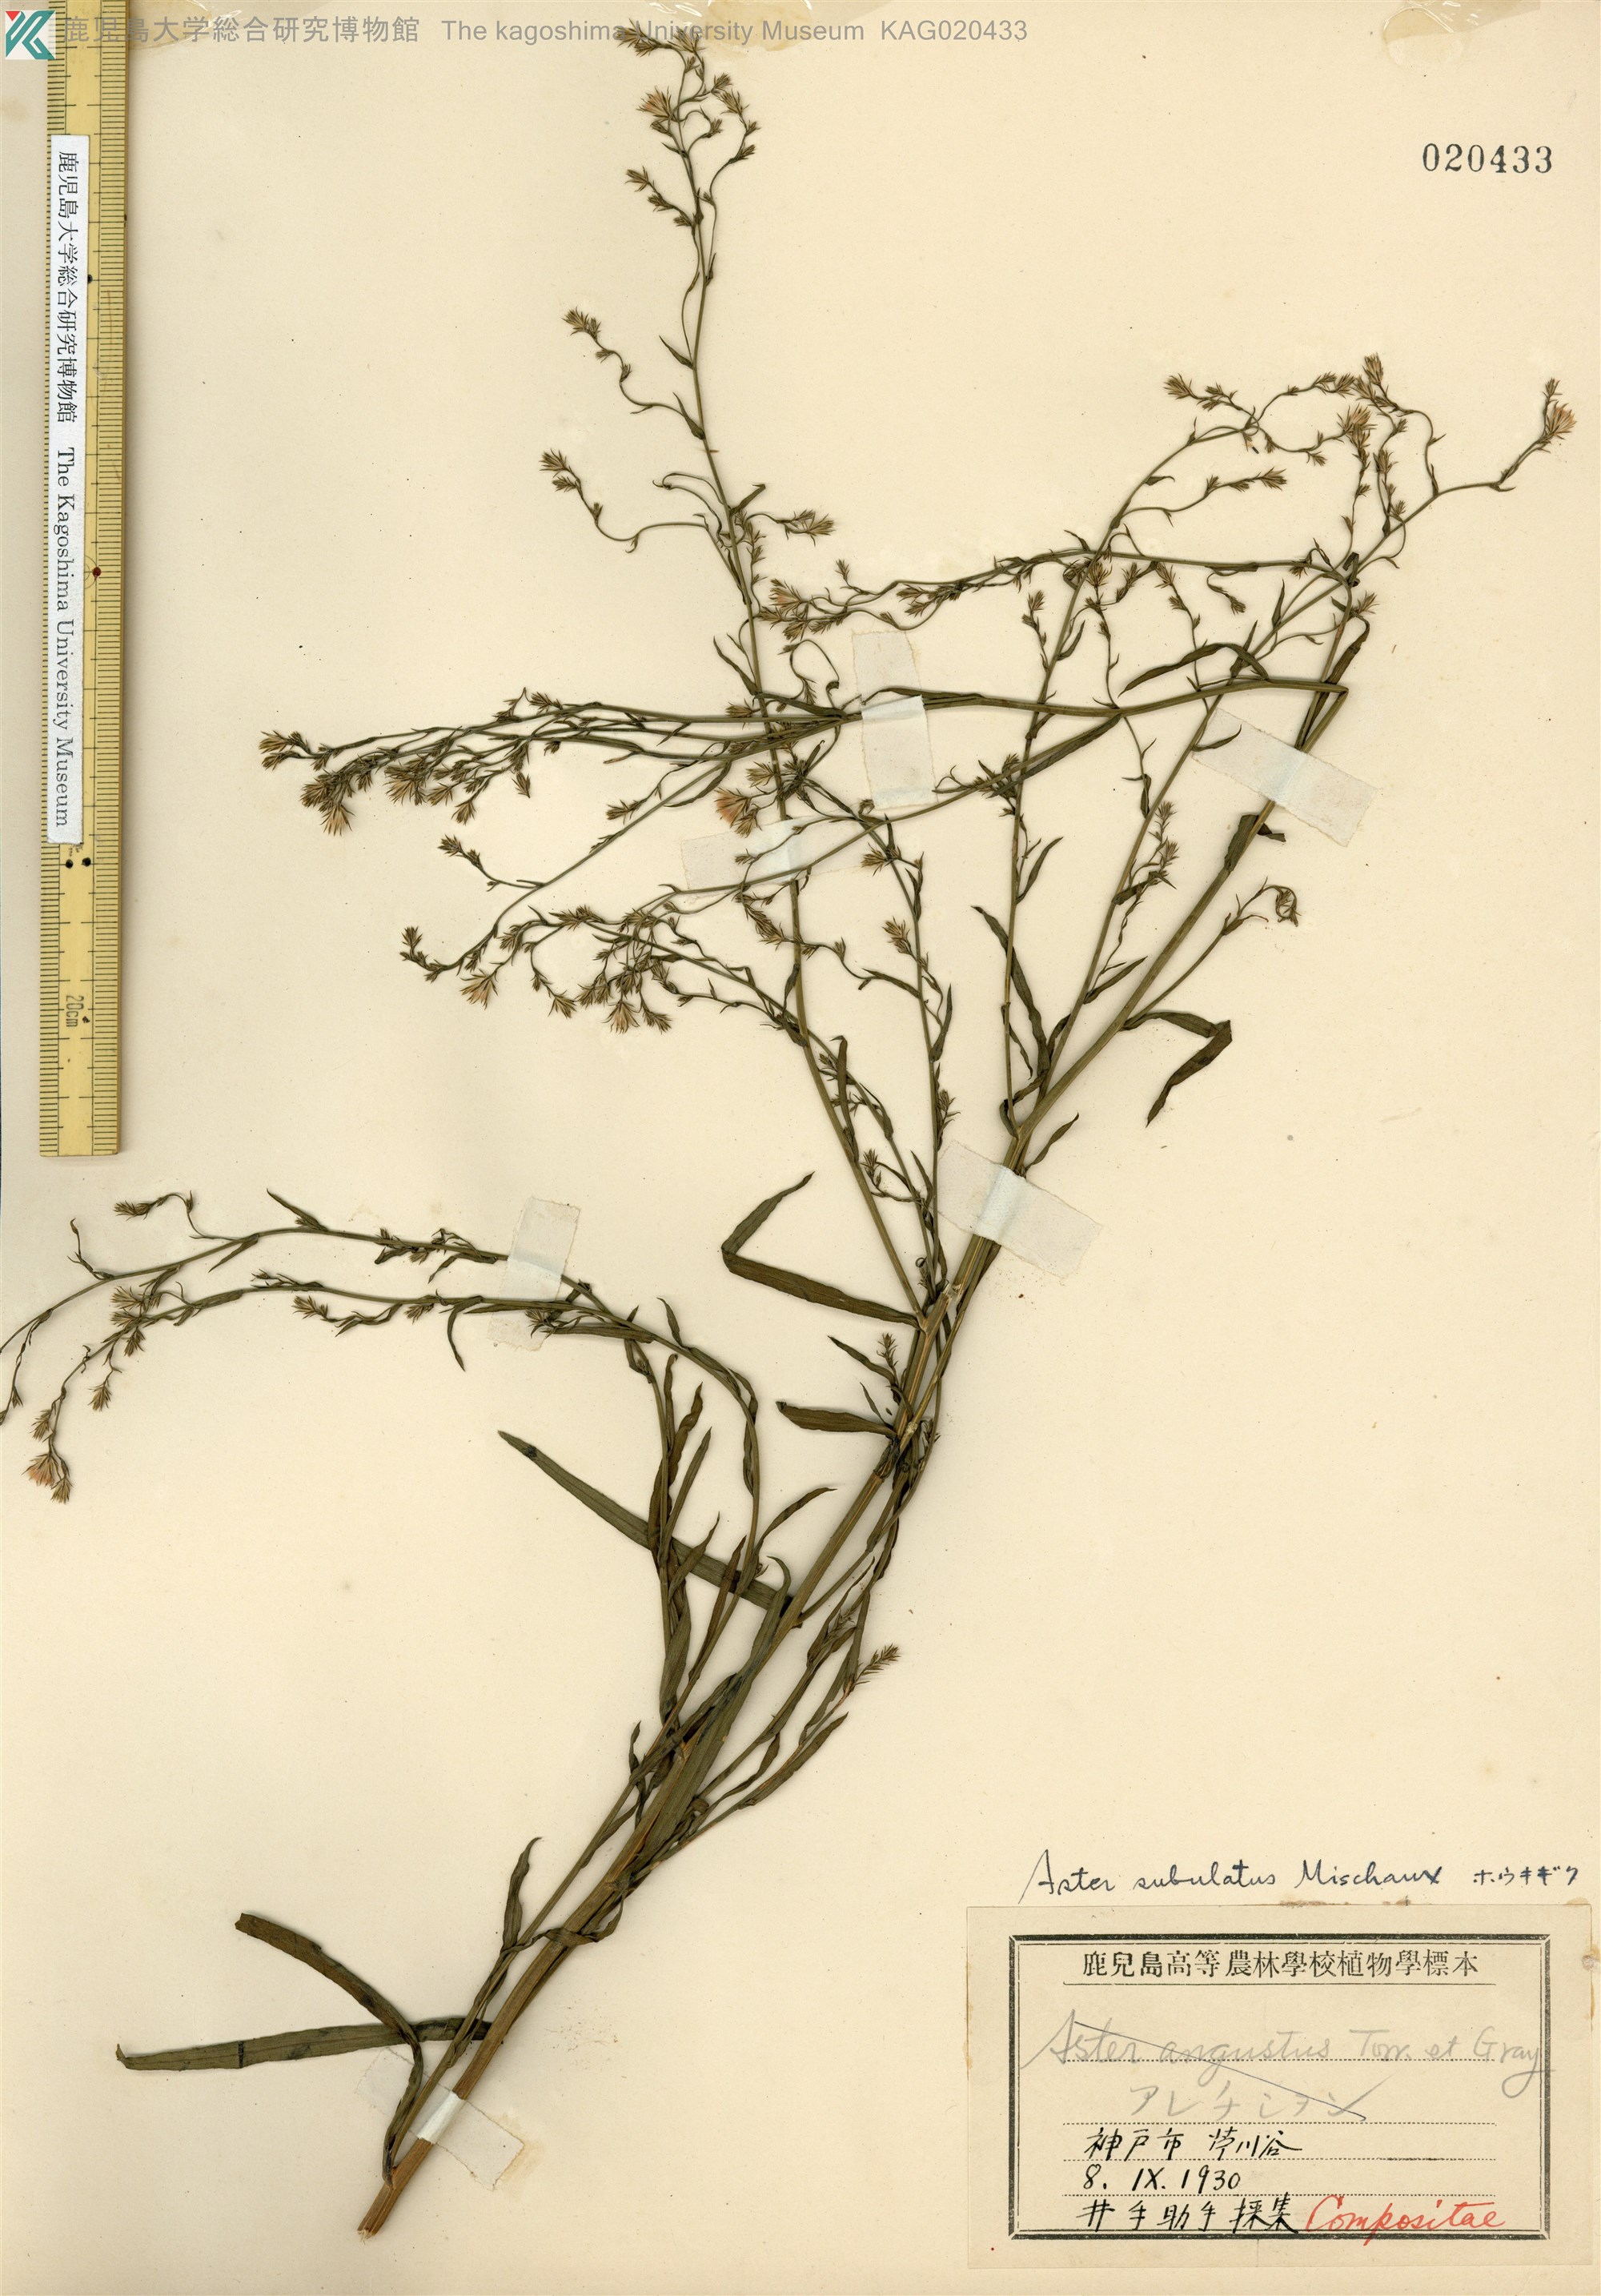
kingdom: Plantae
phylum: Tracheophyta
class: Magnoliopsida
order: Asterales
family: Asteraceae
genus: Symphyotrichum
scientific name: Symphyotrichum subulatum
